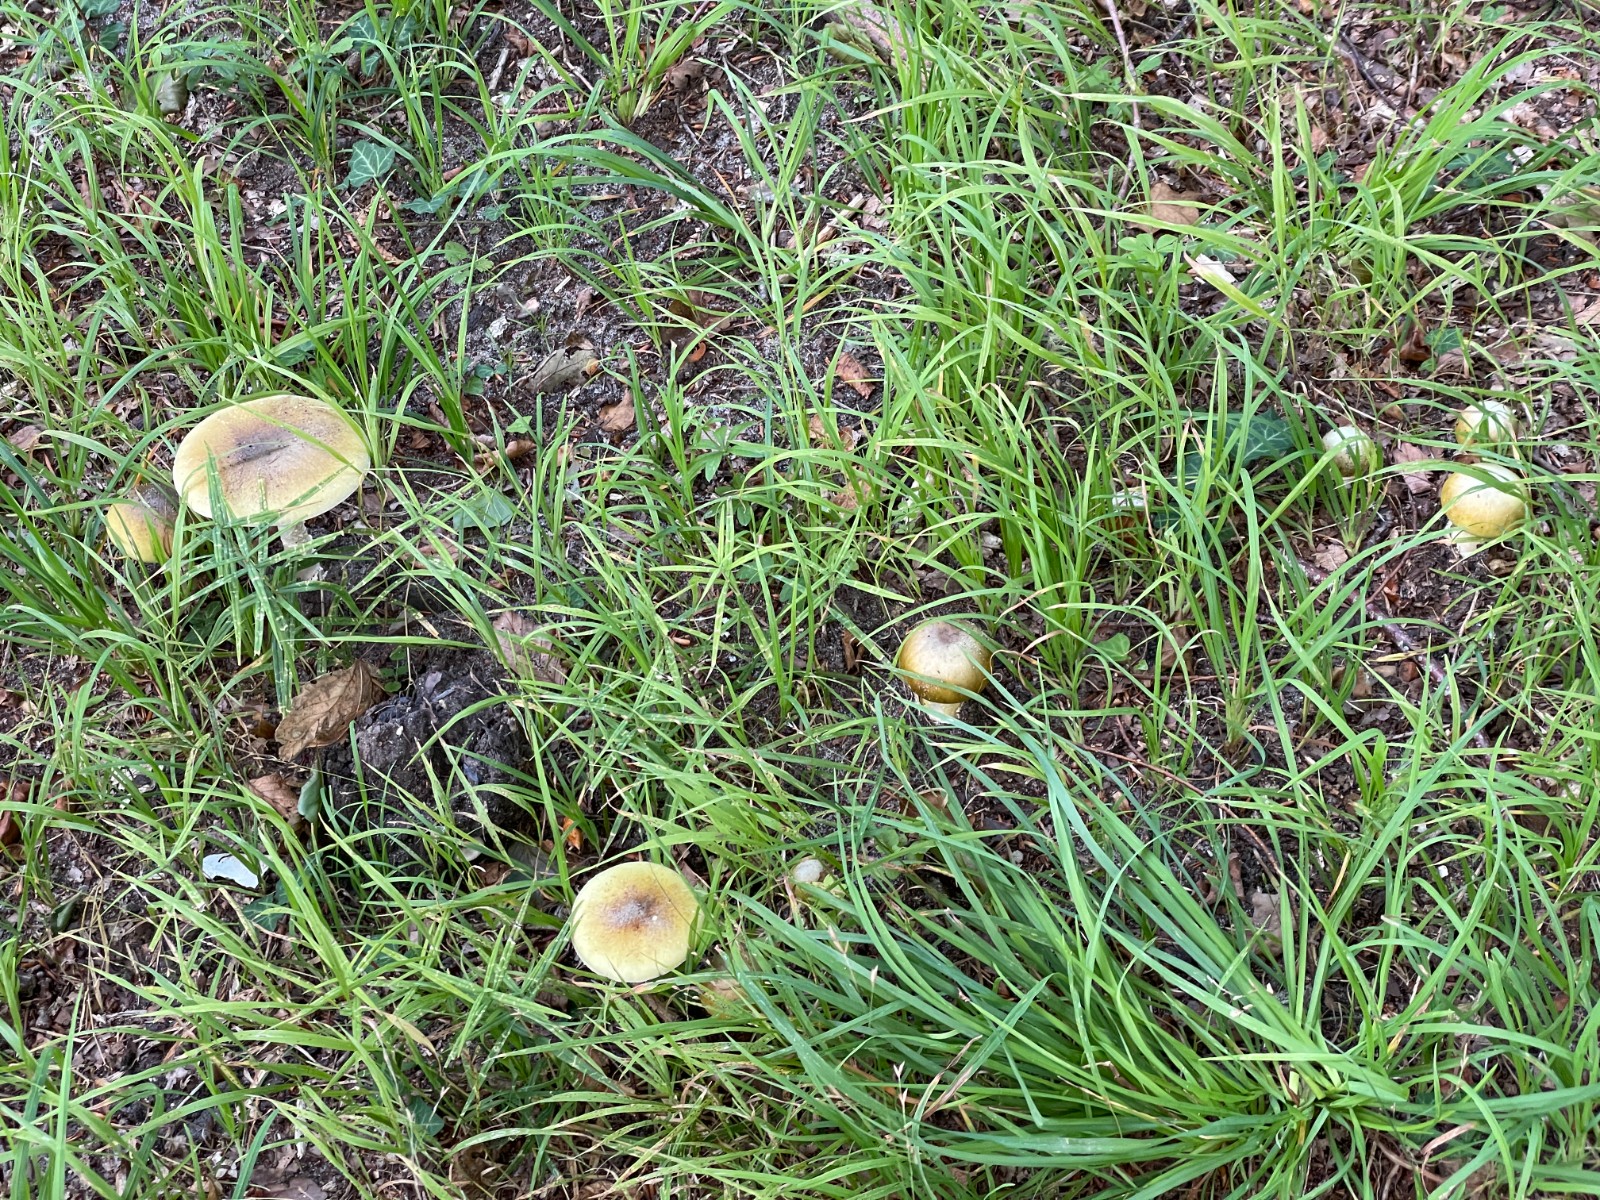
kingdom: Fungi
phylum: Basidiomycota
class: Agaricomycetes
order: Agaricales
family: Amanitaceae
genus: Amanita
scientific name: Amanita phalloides
